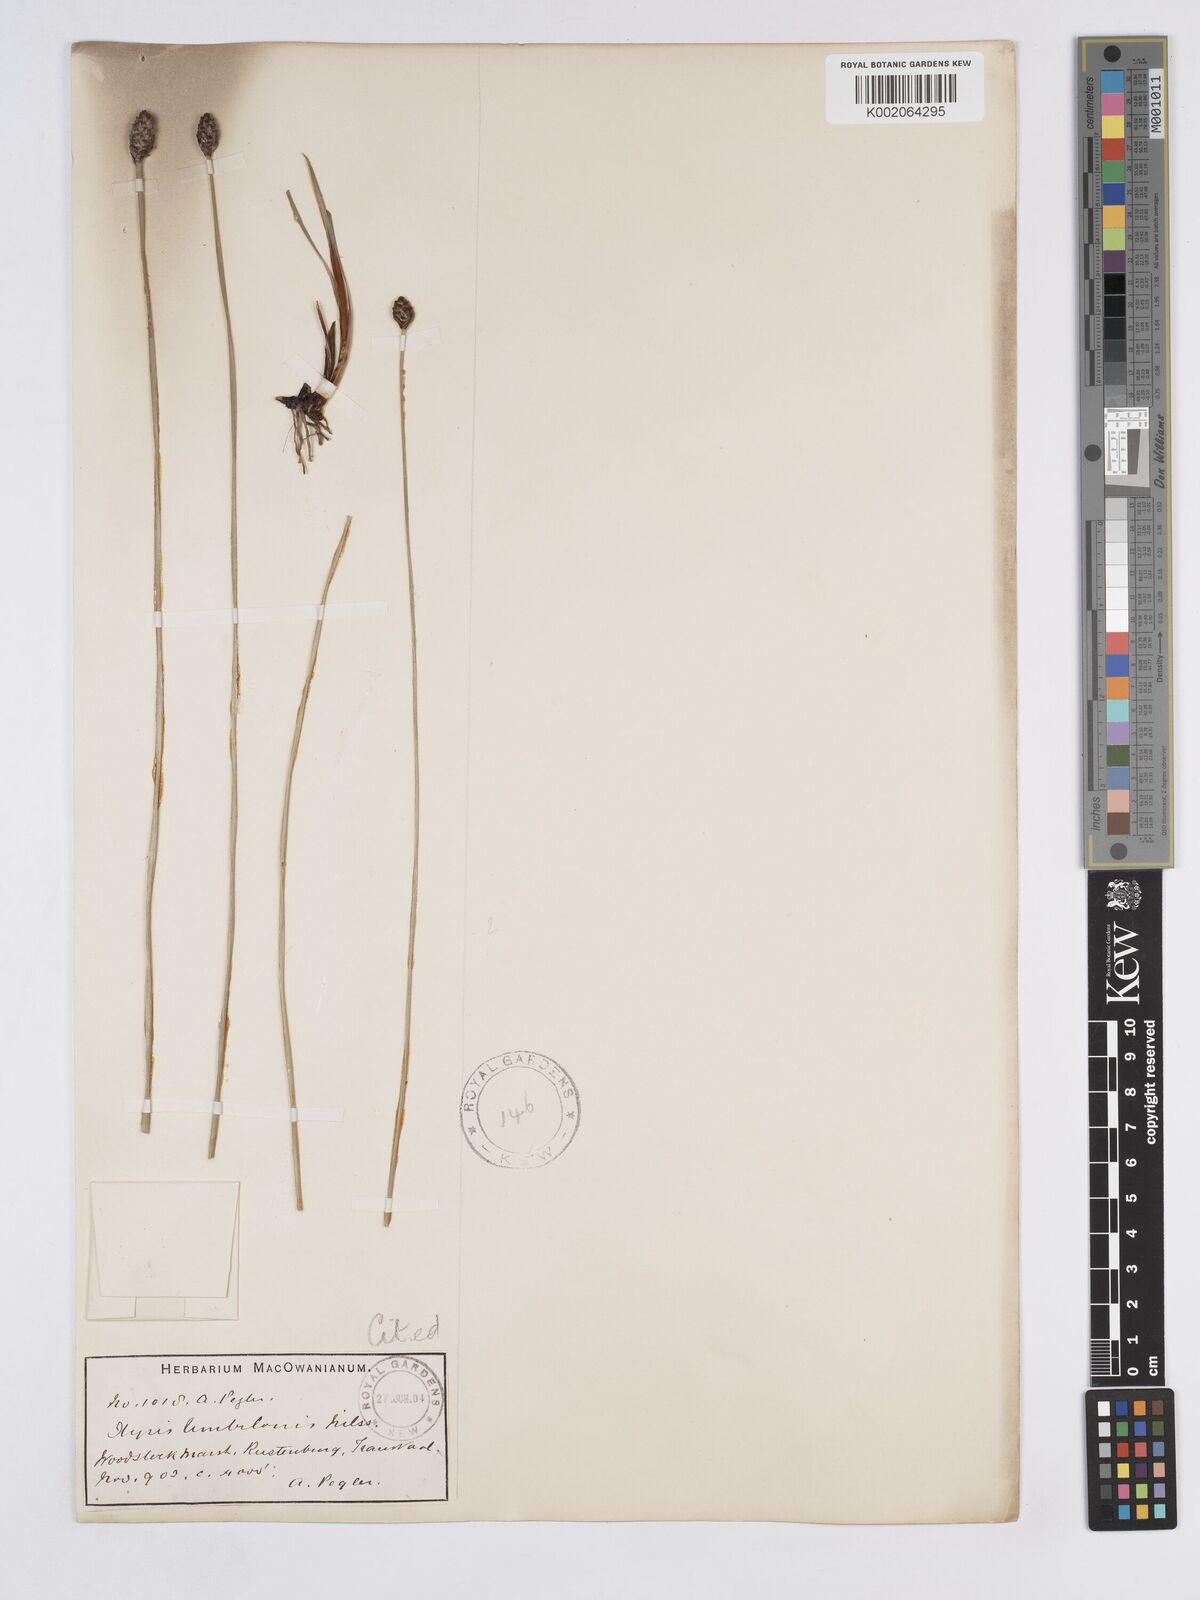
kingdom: Plantae
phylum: Tracheophyta
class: Liliopsida
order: Poales
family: Xyridaceae
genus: Xyris
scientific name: Xyris congensis
